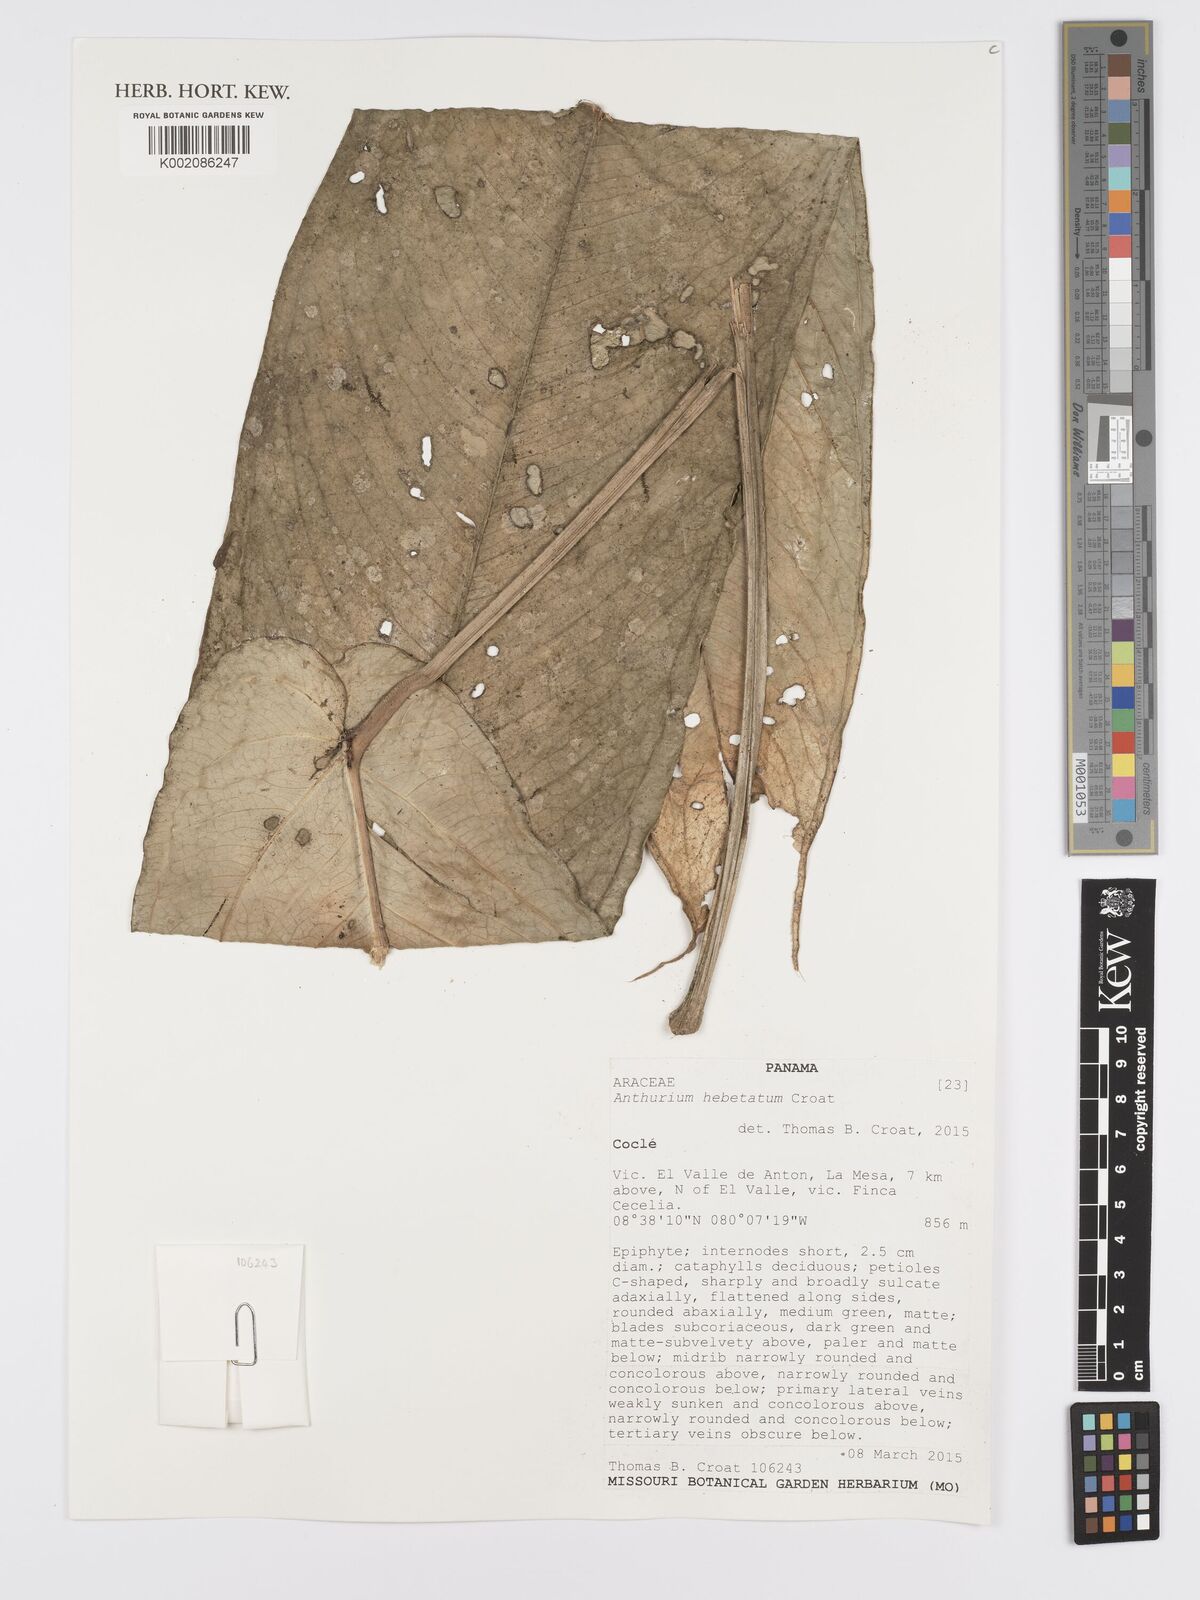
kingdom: Plantae
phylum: Tracheophyta
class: Liliopsida
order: Alismatales
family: Araceae
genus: Anthurium
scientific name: Anthurium hebetatum
